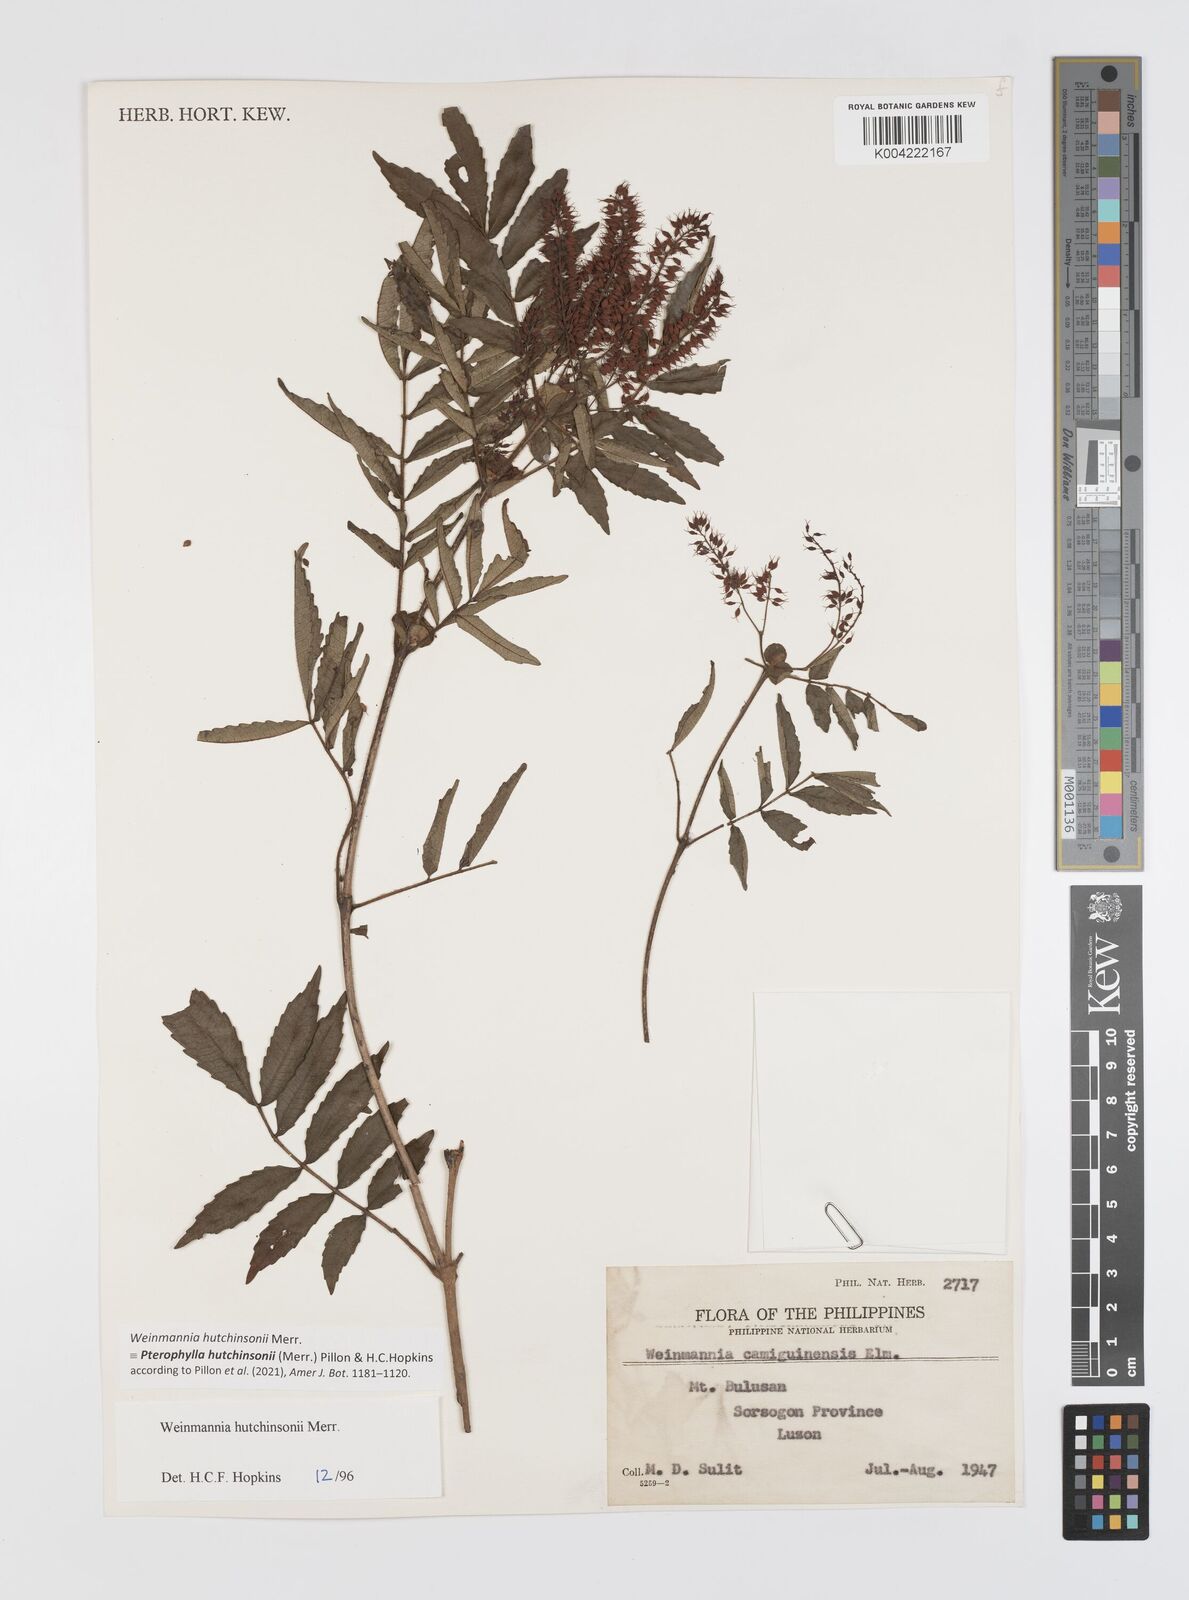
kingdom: Plantae
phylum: Tracheophyta
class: Magnoliopsida
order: Oxalidales
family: Cunoniaceae
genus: Pterophylla
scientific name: Pterophylla hutchinsonii
